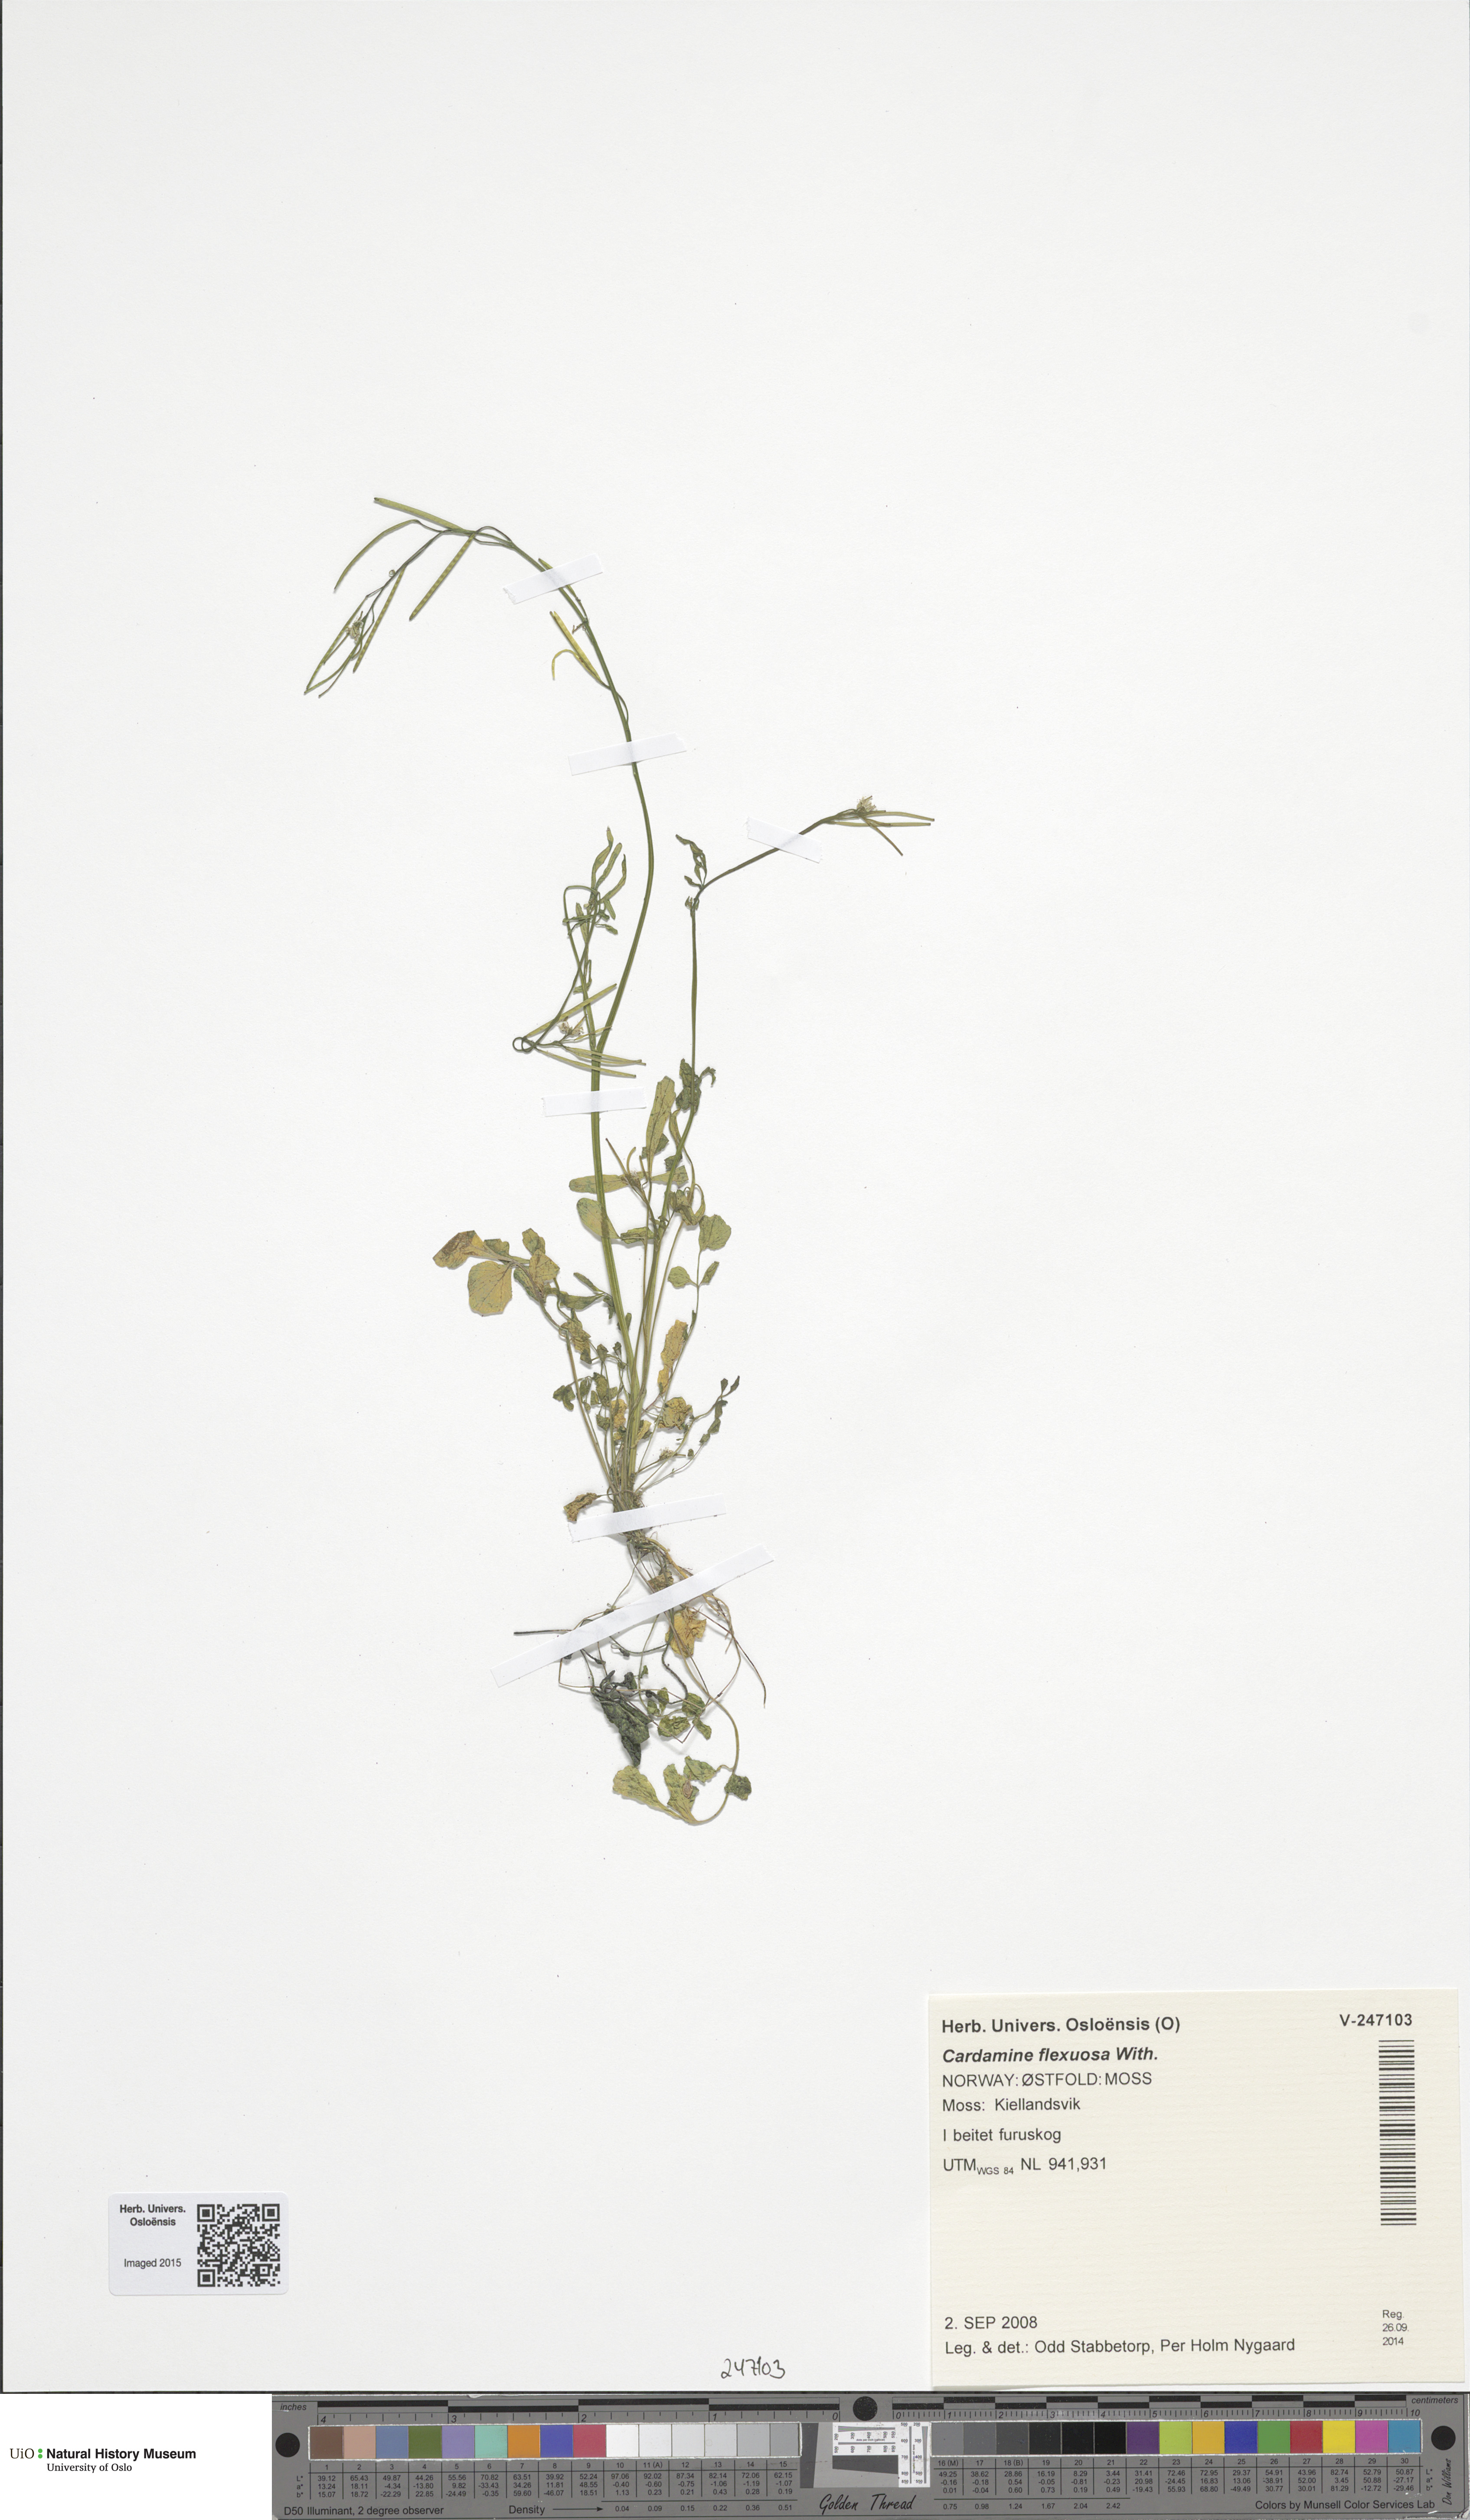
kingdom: Plantae
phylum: Tracheophyta
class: Magnoliopsida
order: Brassicales
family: Brassicaceae
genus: Cardamine
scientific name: Cardamine flexuosa
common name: Woodland bittercress
